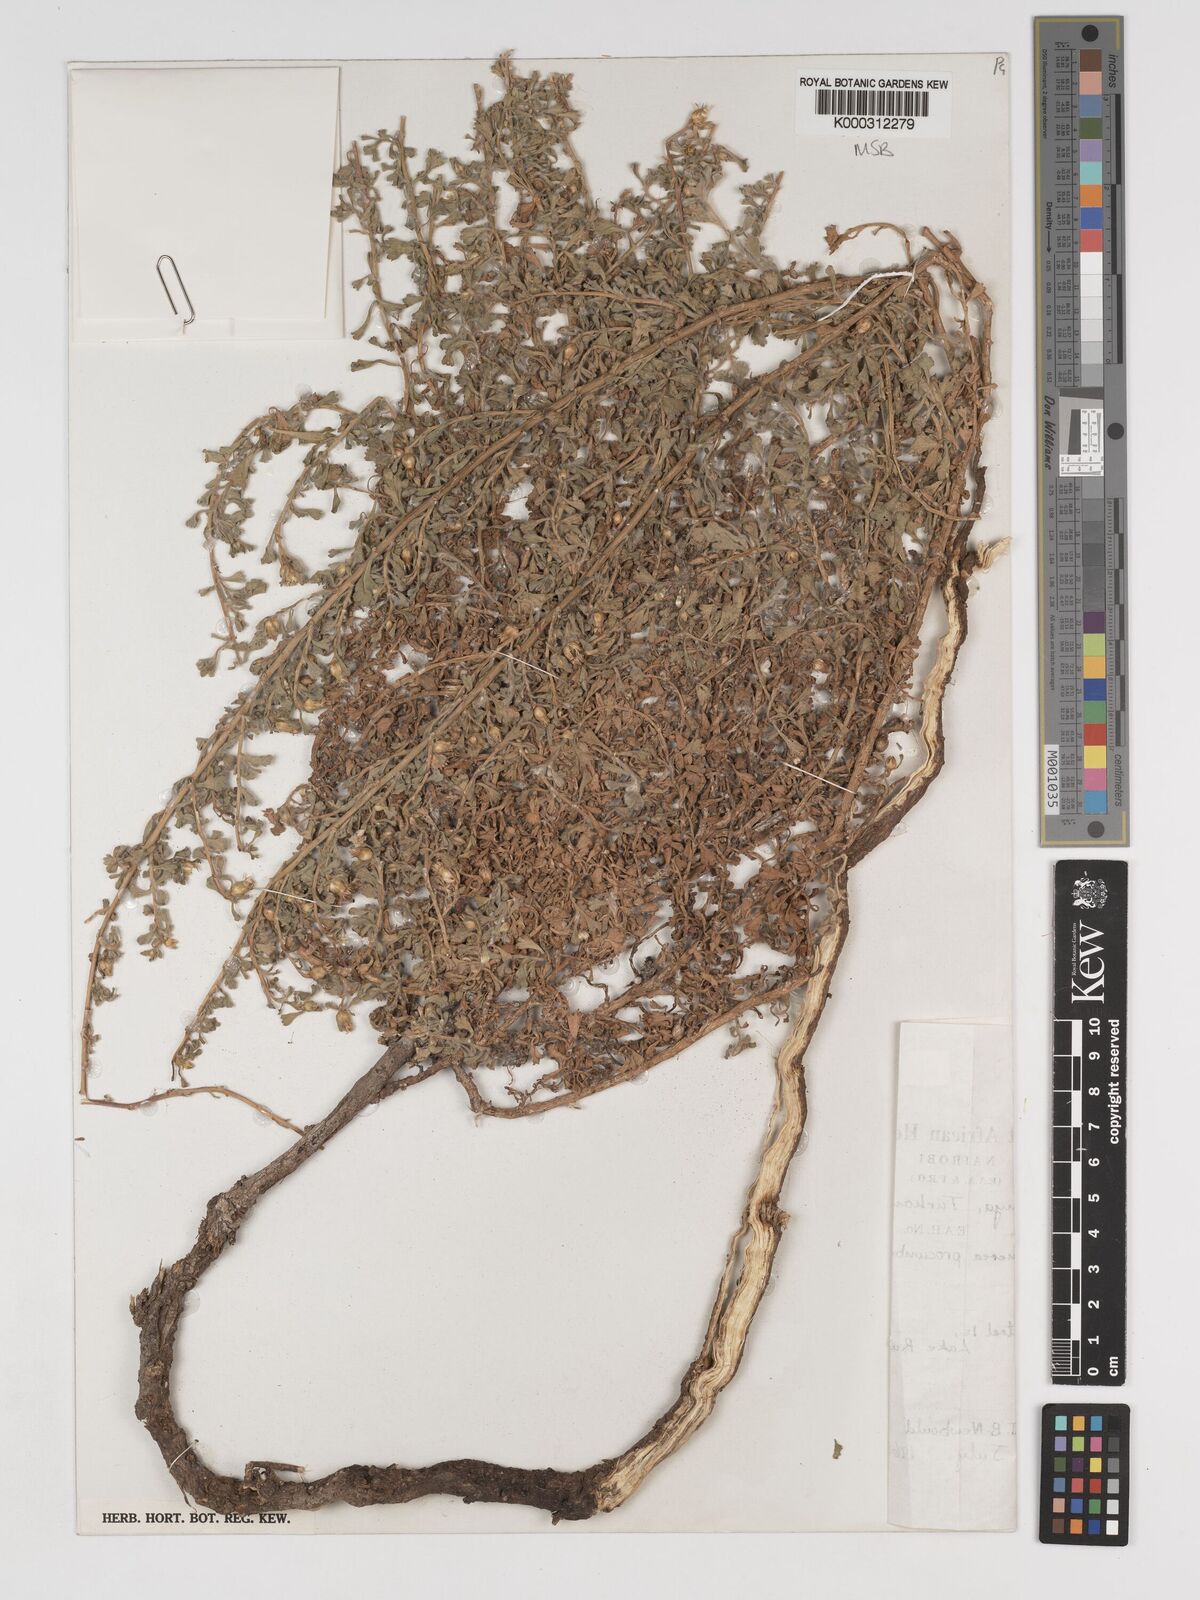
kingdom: Plantae
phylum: Tracheophyta
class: Magnoliopsida
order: Asterales
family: Asteraceae
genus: Delamerea
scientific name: Delamerea procumbens
